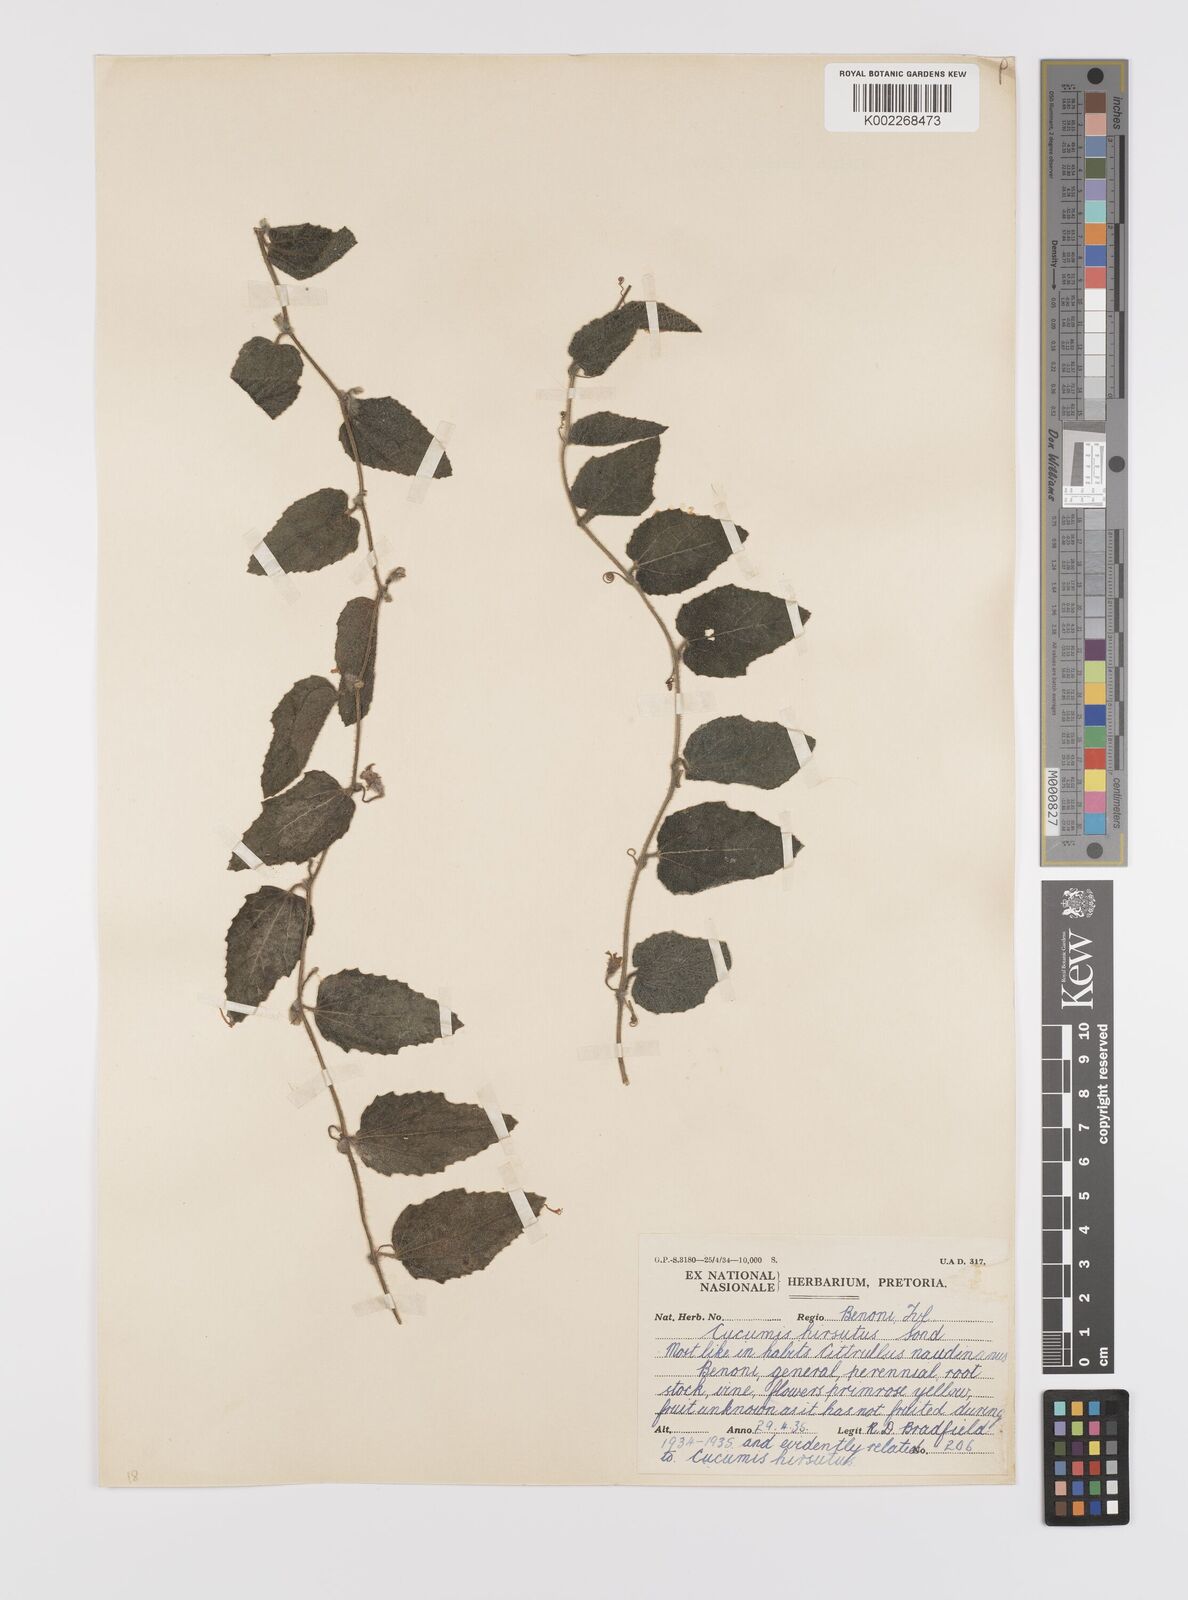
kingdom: Plantae
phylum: Tracheophyta
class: Magnoliopsida
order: Cucurbitales
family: Cucurbitaceae
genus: Cucumis
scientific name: Cucumis hirsutus
